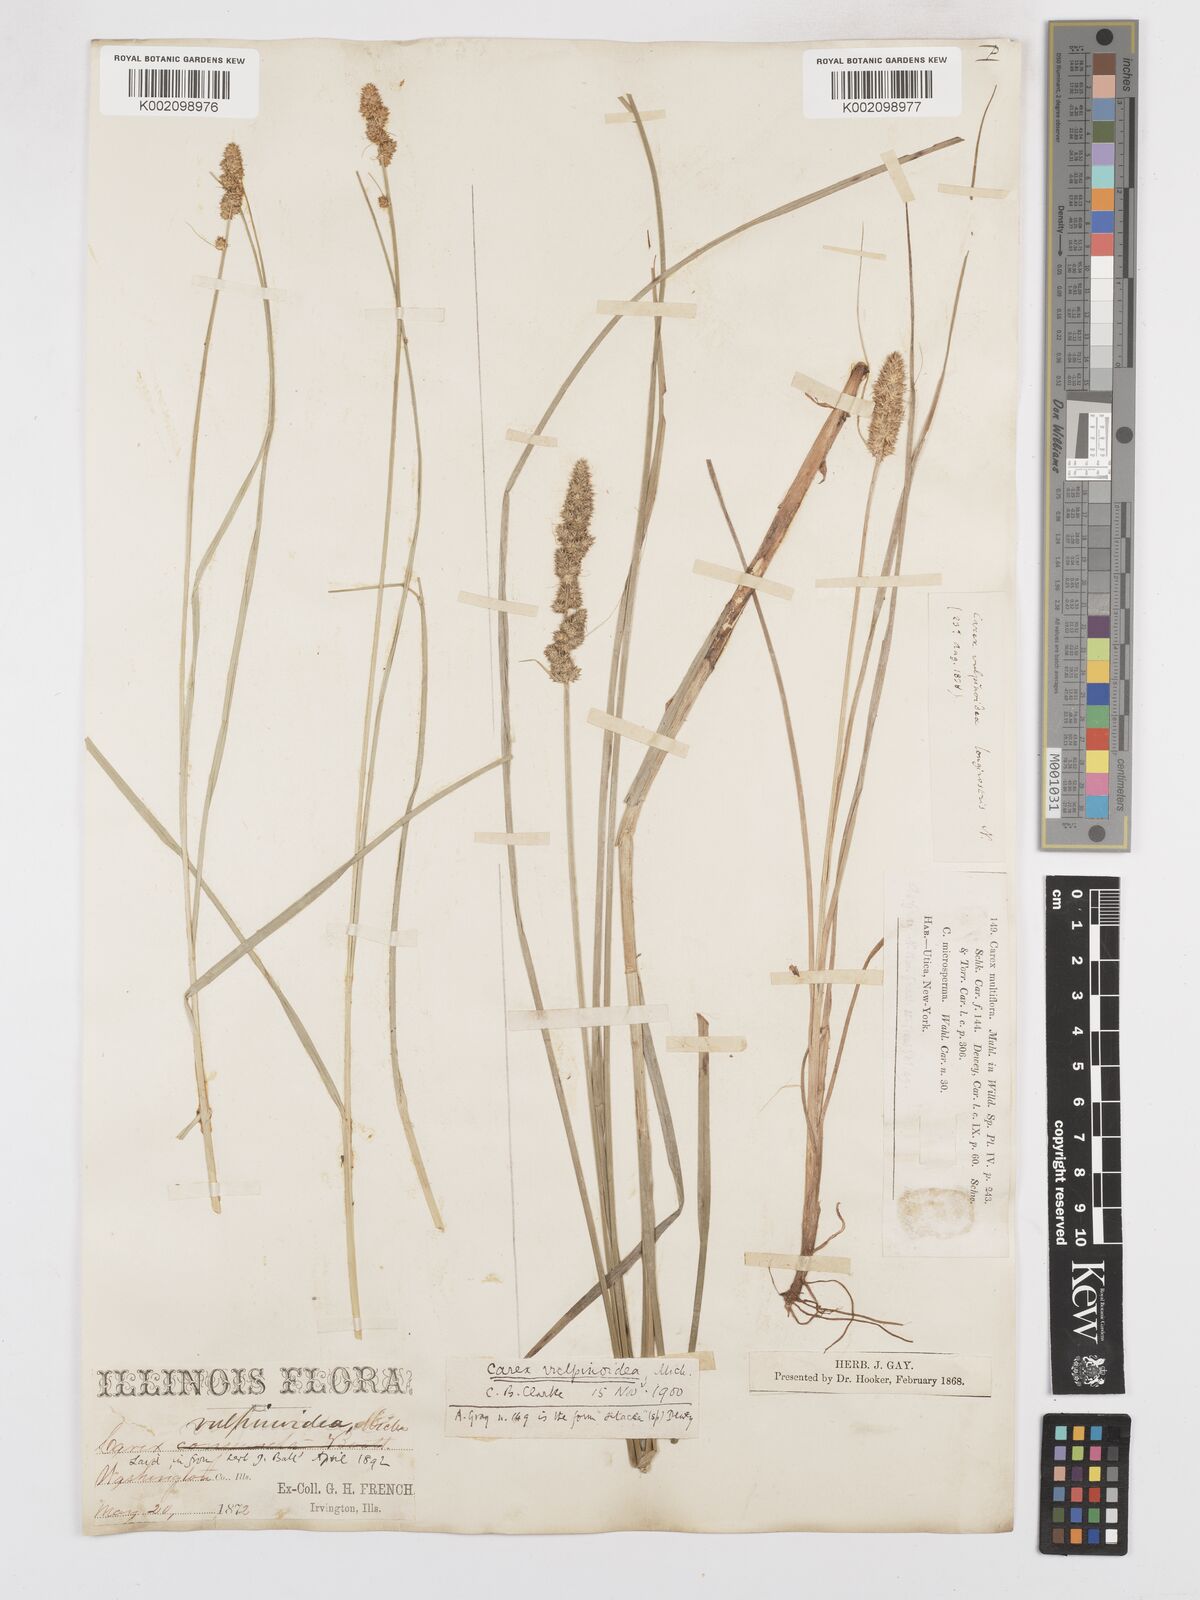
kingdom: Plantae
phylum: Tracheophyta
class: Liliopsida
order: Poales
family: Cyperaceae
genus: Carex
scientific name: Carex vulpinoidea
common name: American fox-sedge
